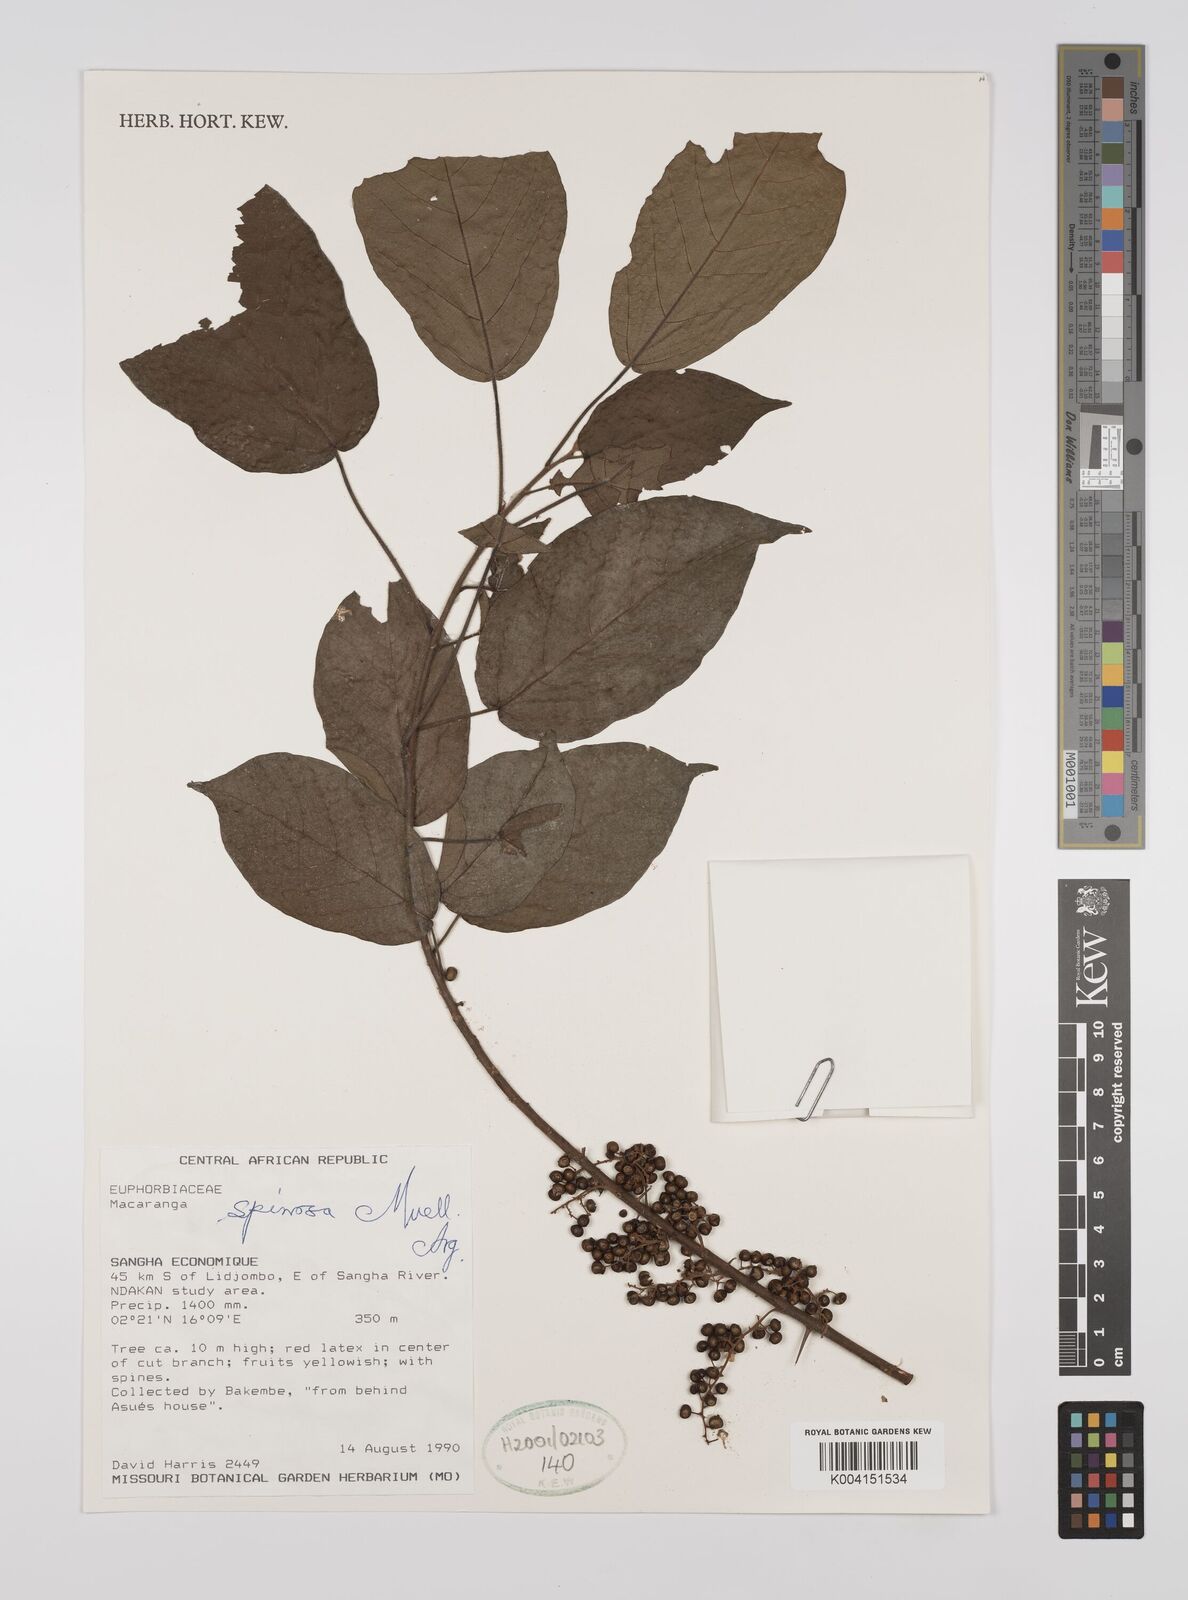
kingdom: Plantae
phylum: Tracheophyta
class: Magnoliopsida
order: Malpighiales
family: Euphorbiaceae
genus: Macaranga
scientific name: Macaranga spinosa
